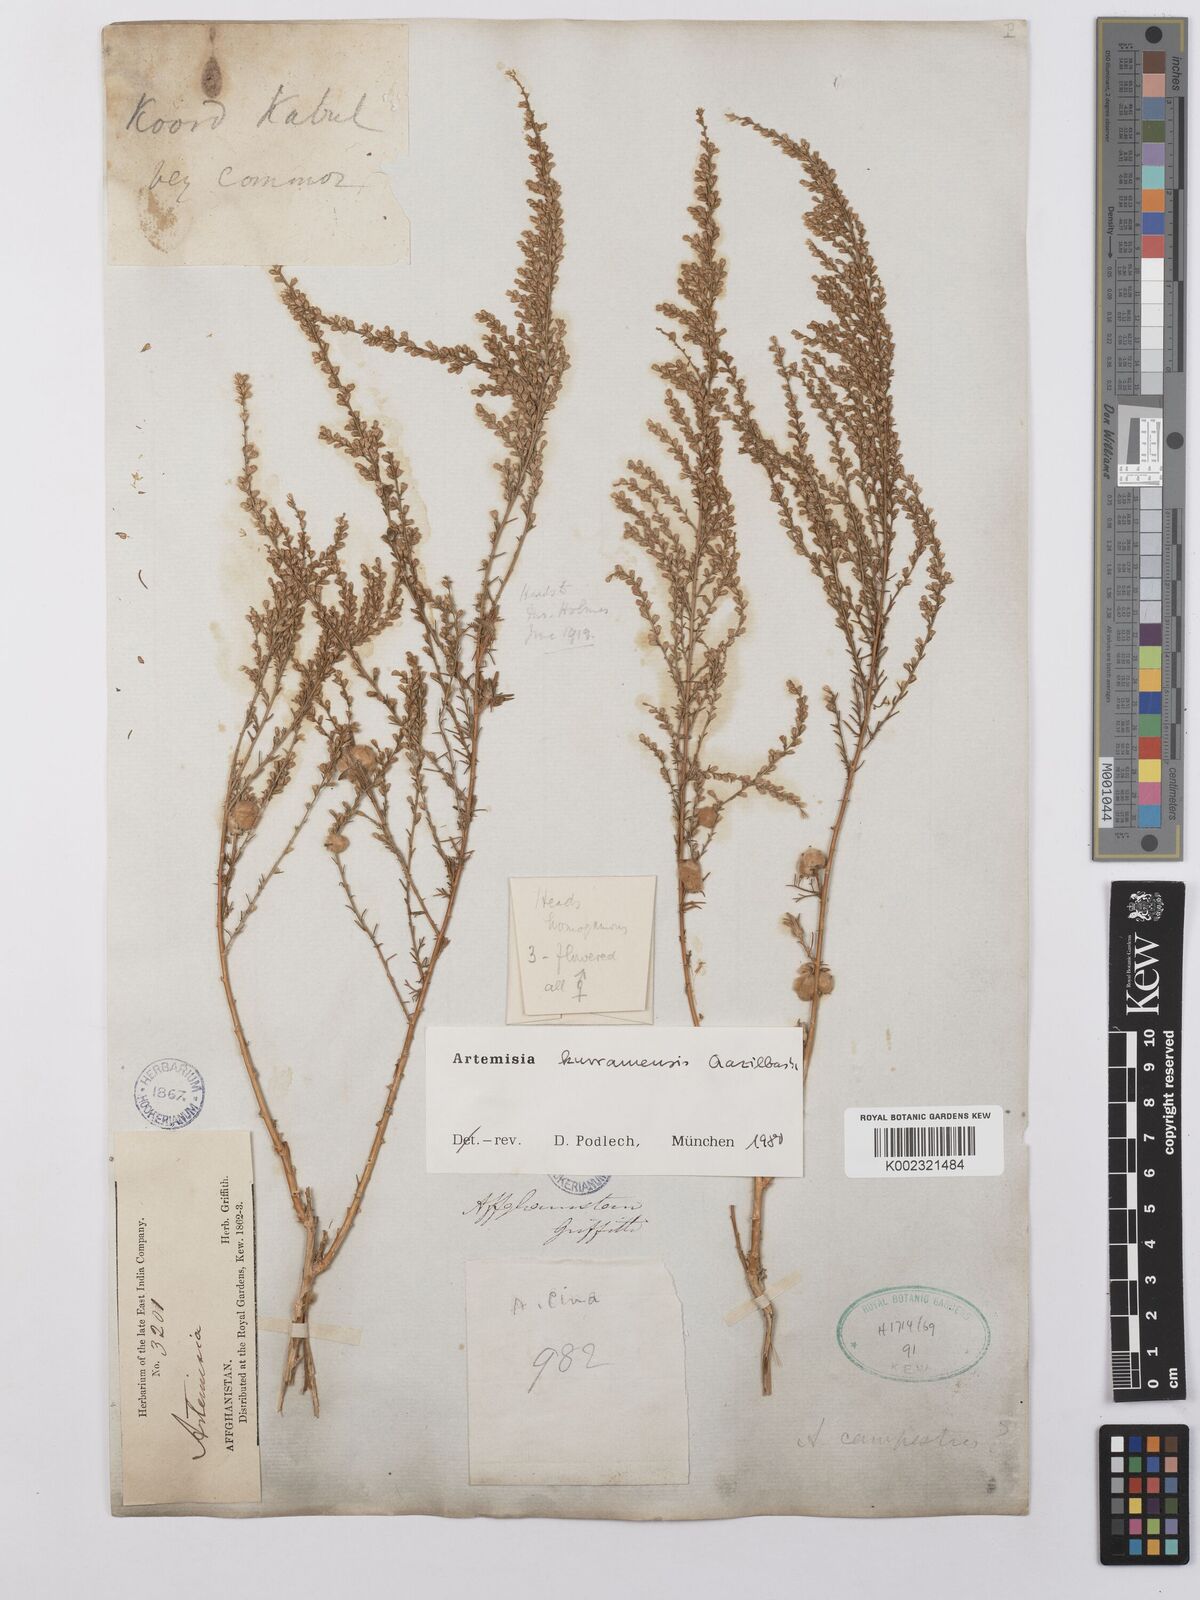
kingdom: Plantae
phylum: Tracheophyta
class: Magnoliopsida
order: Asterales
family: Asteraceae
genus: Artemisia
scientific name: Artemisia kurramensis
